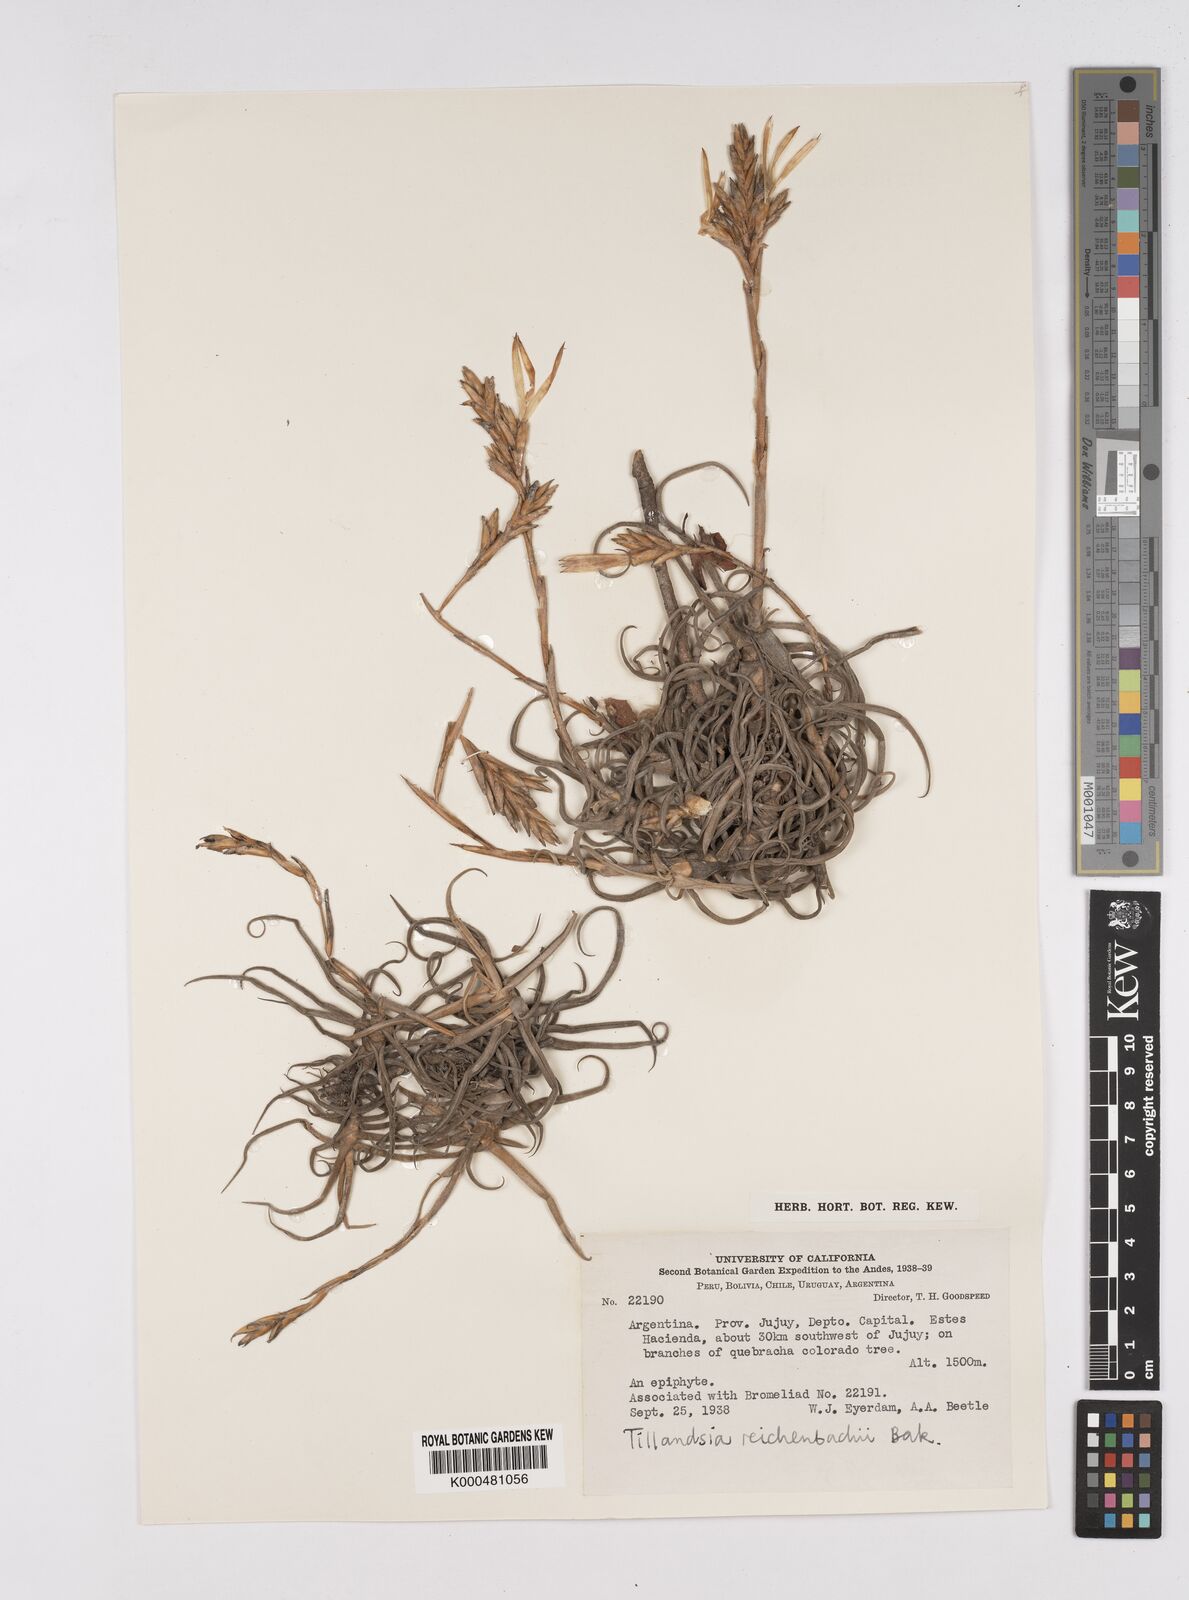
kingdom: Plantae
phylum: Tracheophyta
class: Liliopsida
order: Poales
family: Bromeliaceae
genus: Tillandsia
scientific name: Tillandsia reichenbachii
